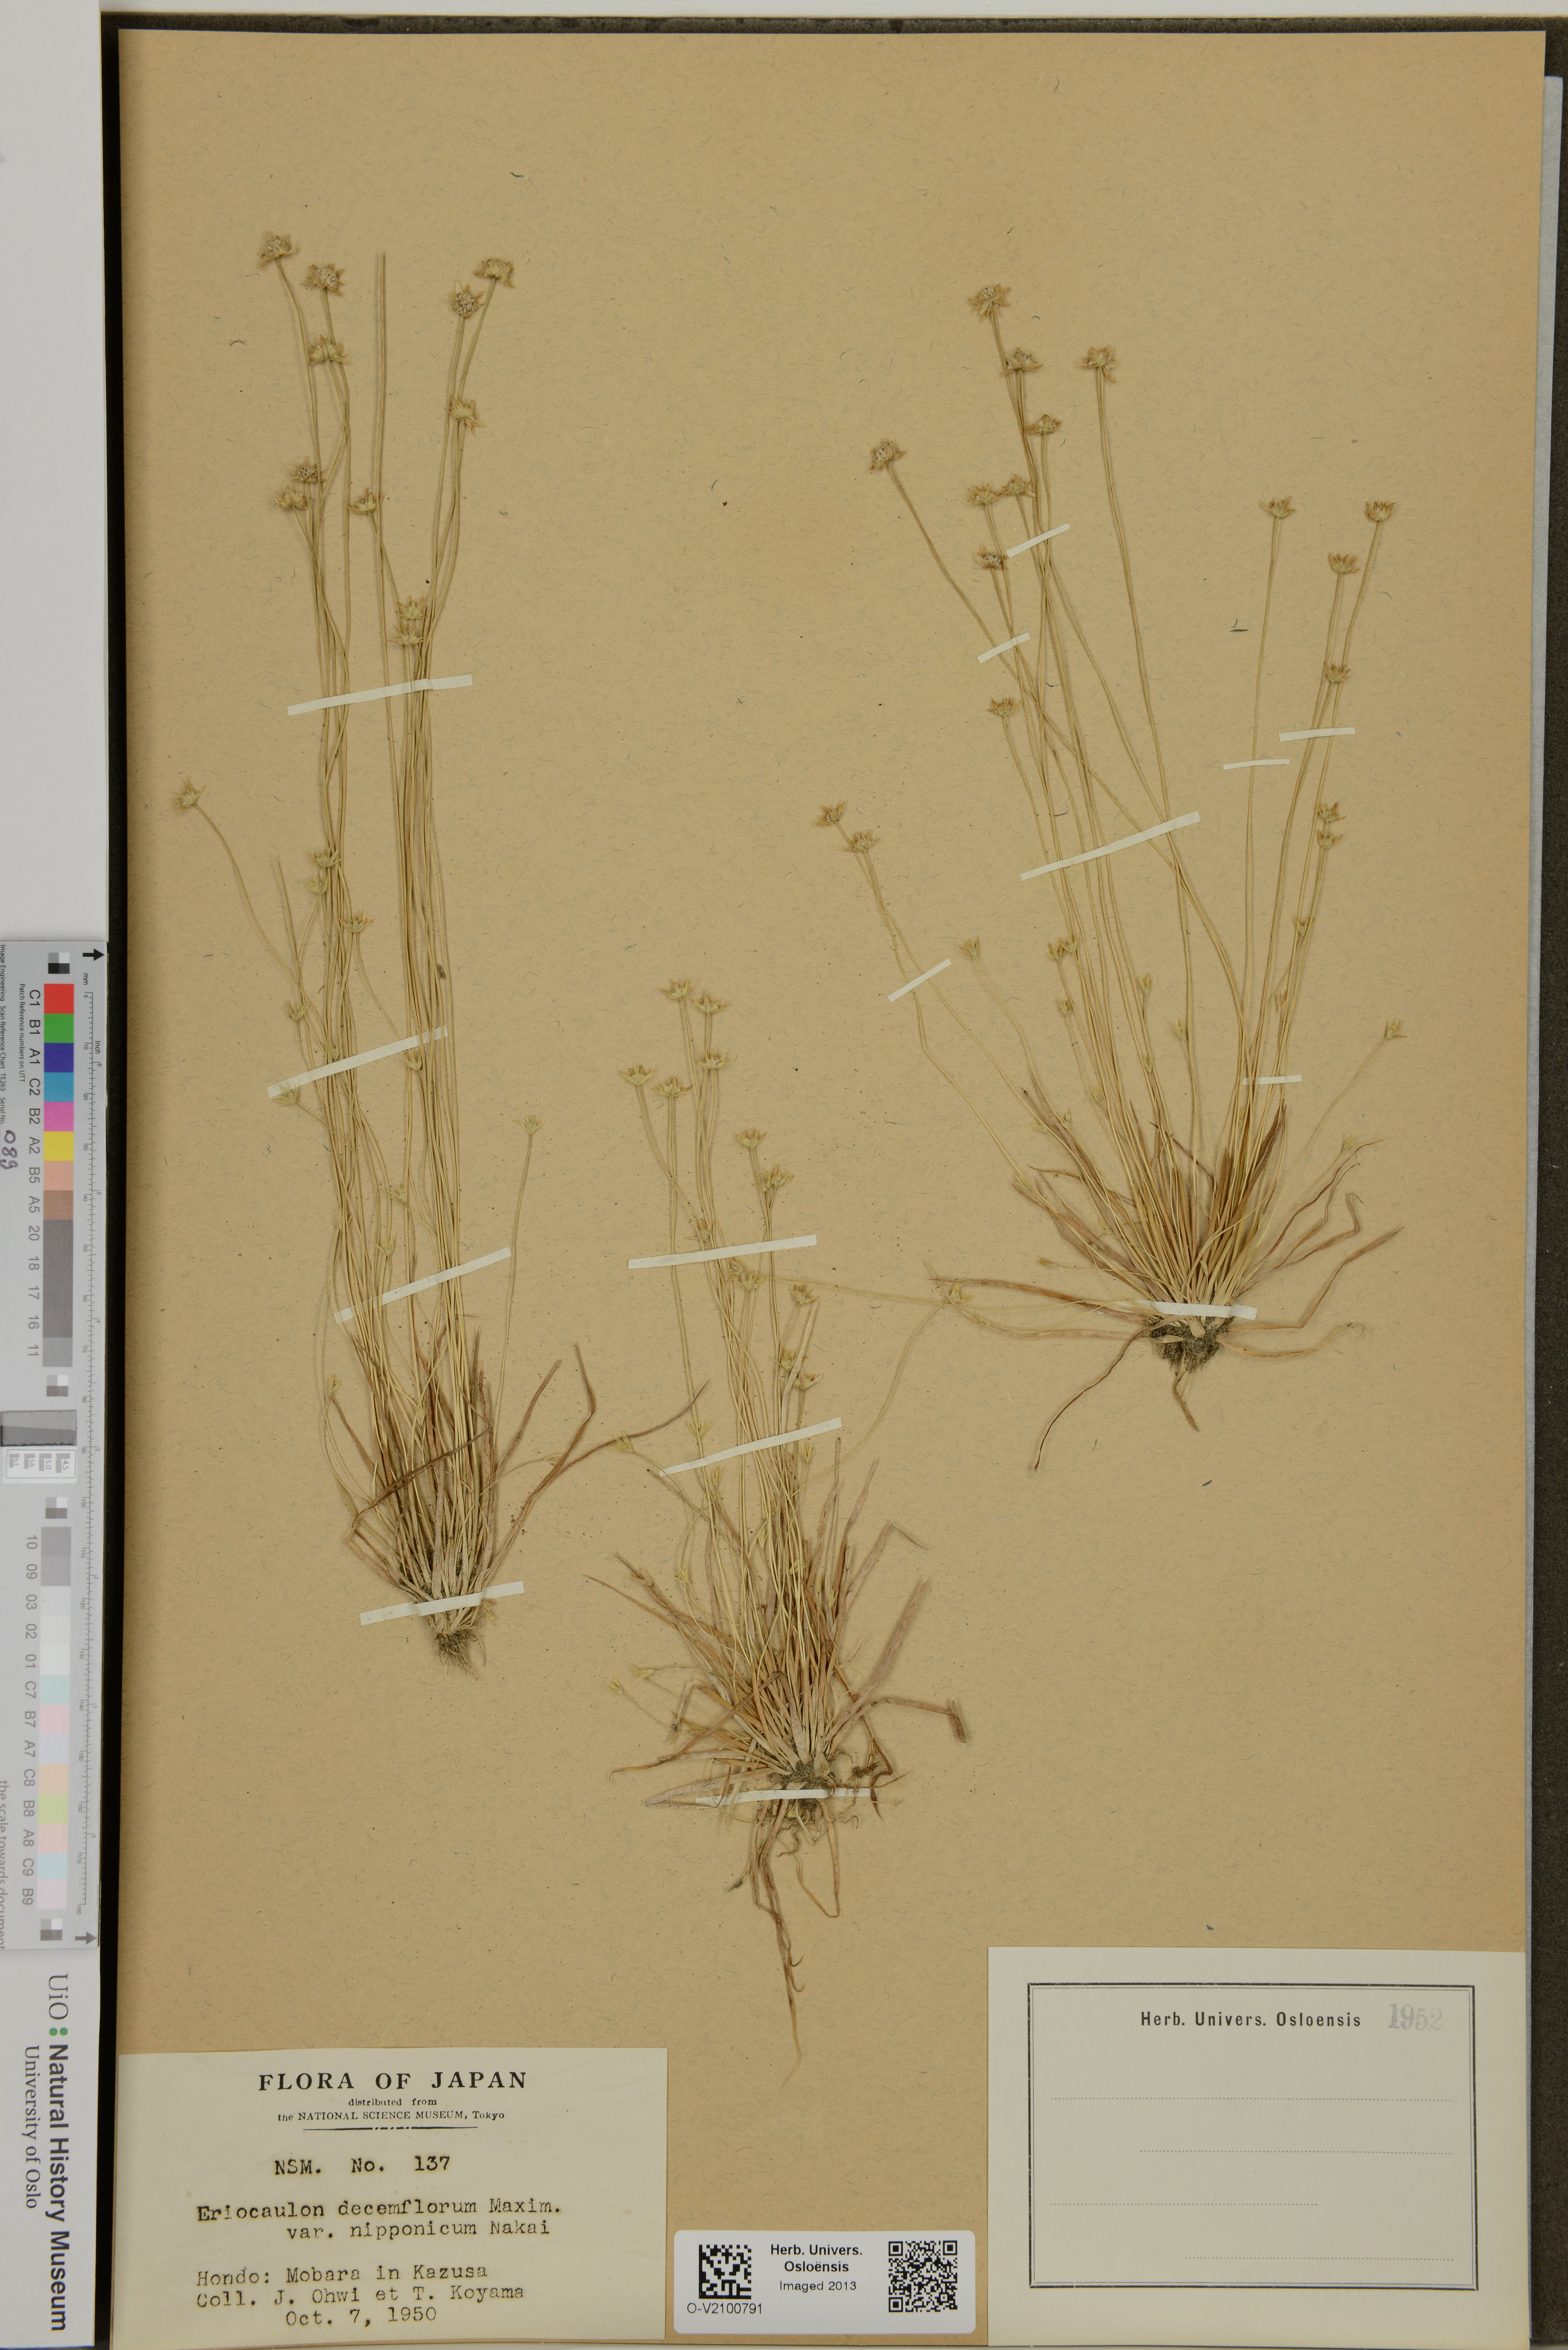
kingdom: Plantae
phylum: Tracheophyta
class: Liliopsida
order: Poales
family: Eriocaulaceae
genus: Eriocaulon
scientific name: Eriocaulon decemflorum
